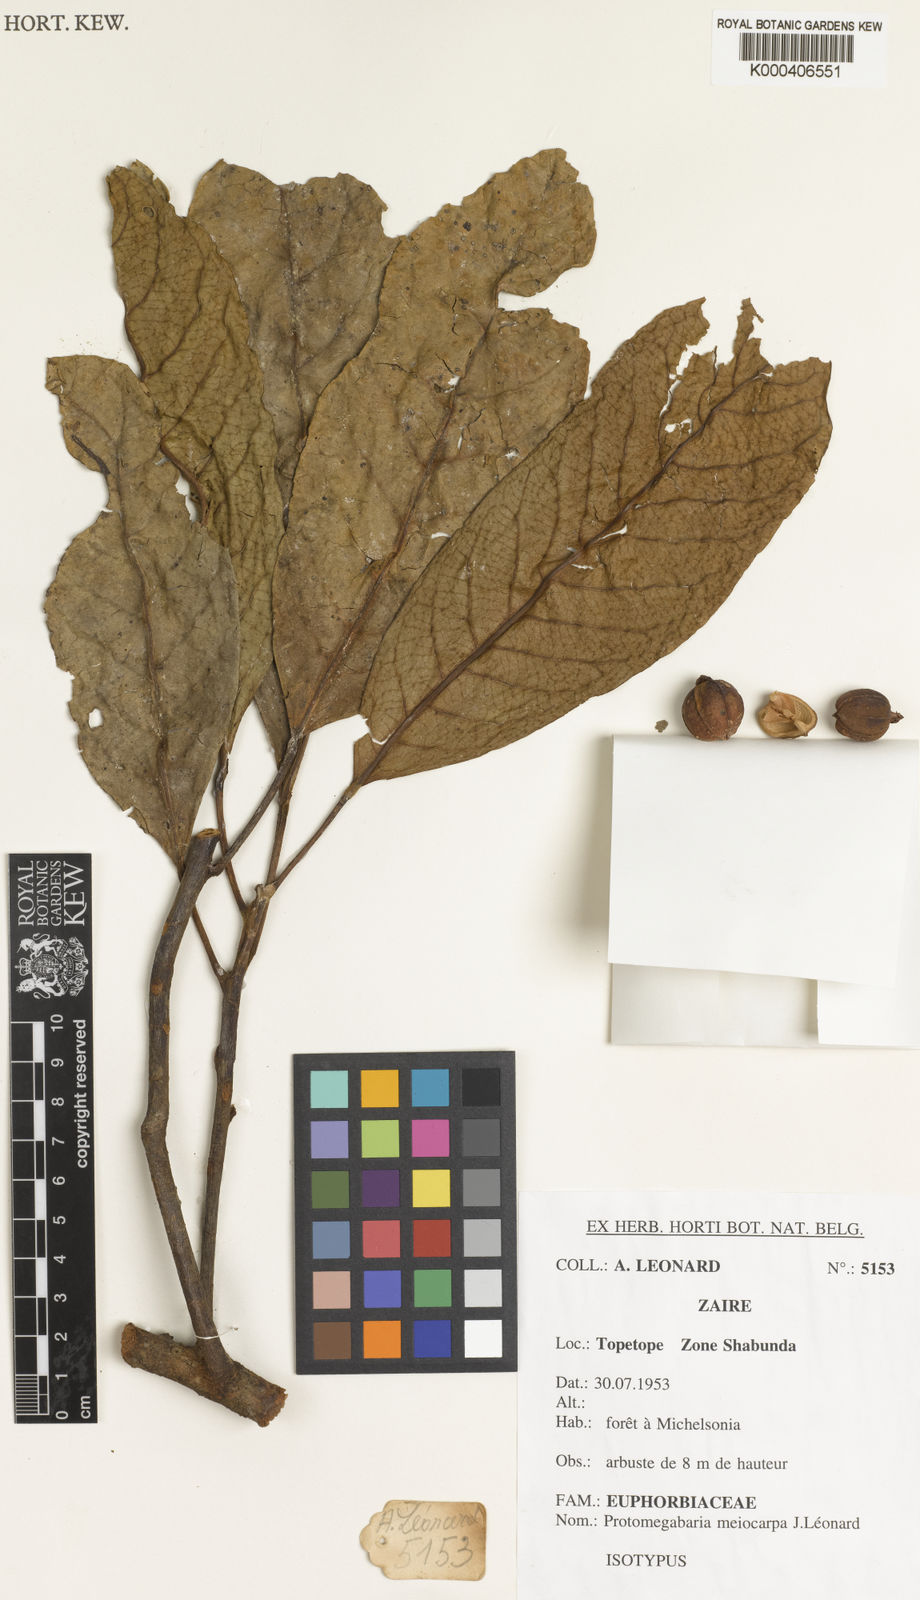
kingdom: Plantae
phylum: Tracheophyta
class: Magnoliopsida
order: Malpighiales
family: Phyllanthaceae
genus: Protomegabaria
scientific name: Protomegabaria
